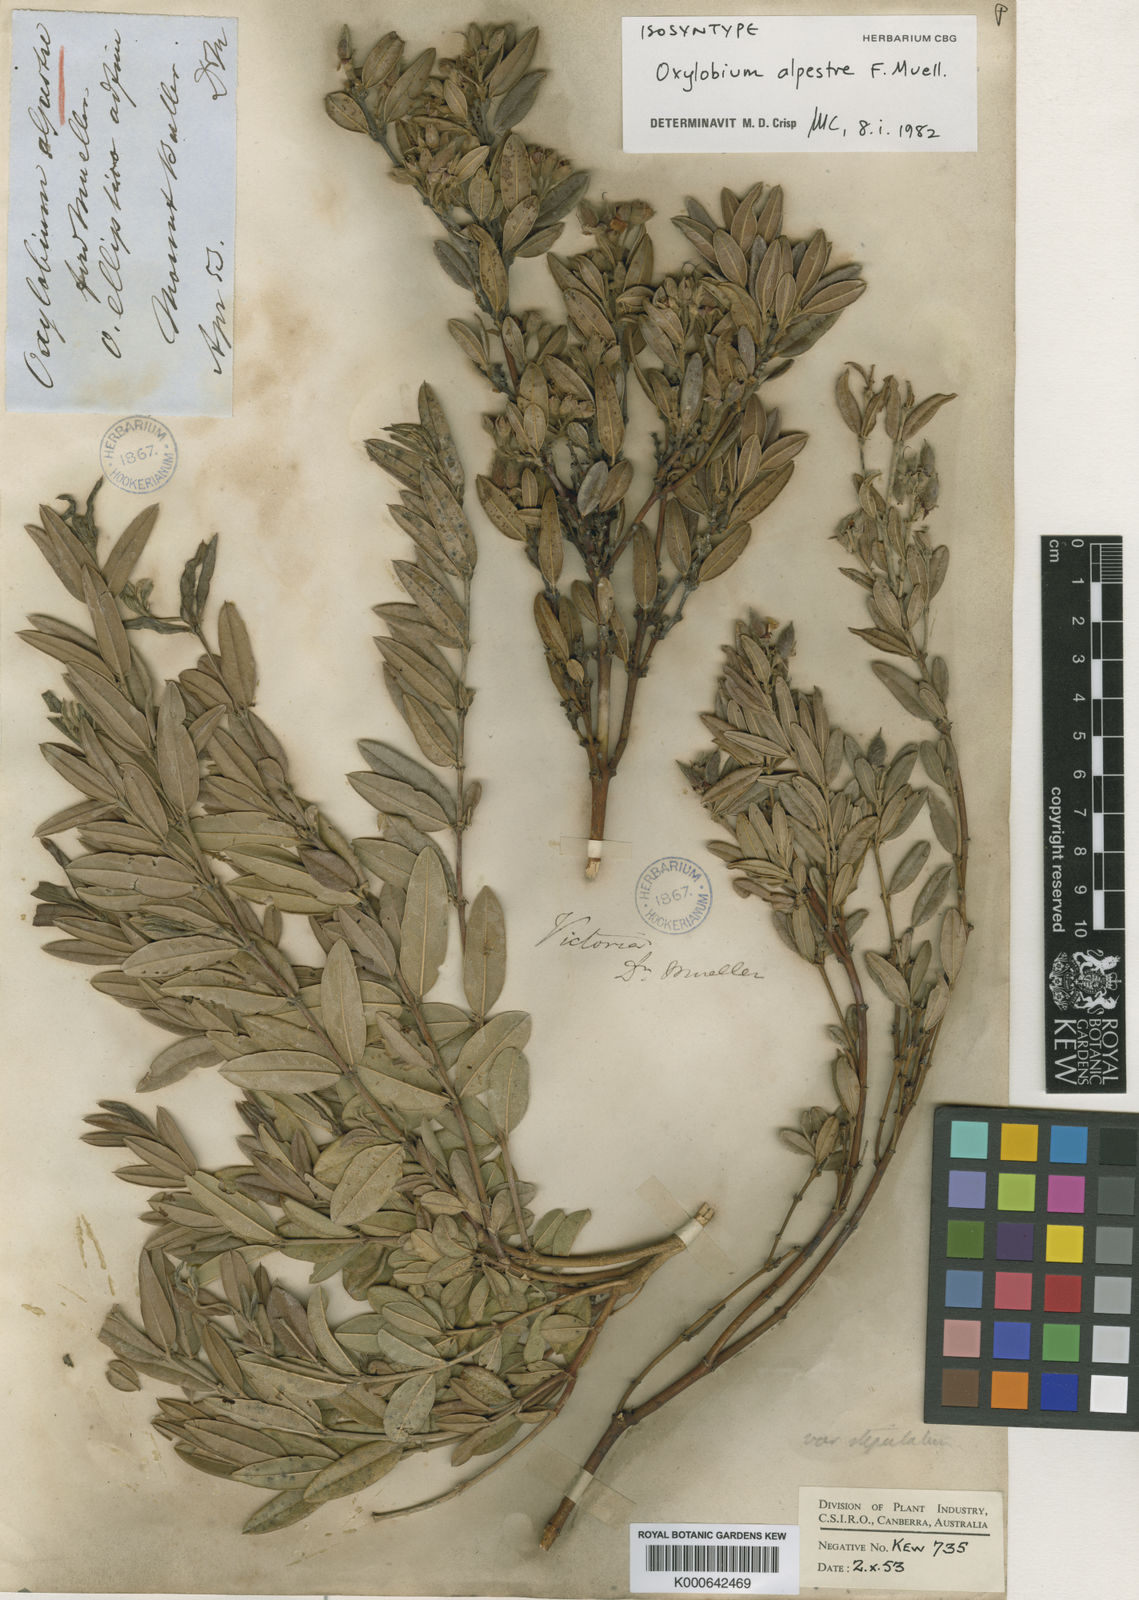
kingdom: Plantae
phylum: Tracheophyta
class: Magnoliopsida
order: Fabales
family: Fabaceae
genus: Podolobium
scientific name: Podolobium alpestre
